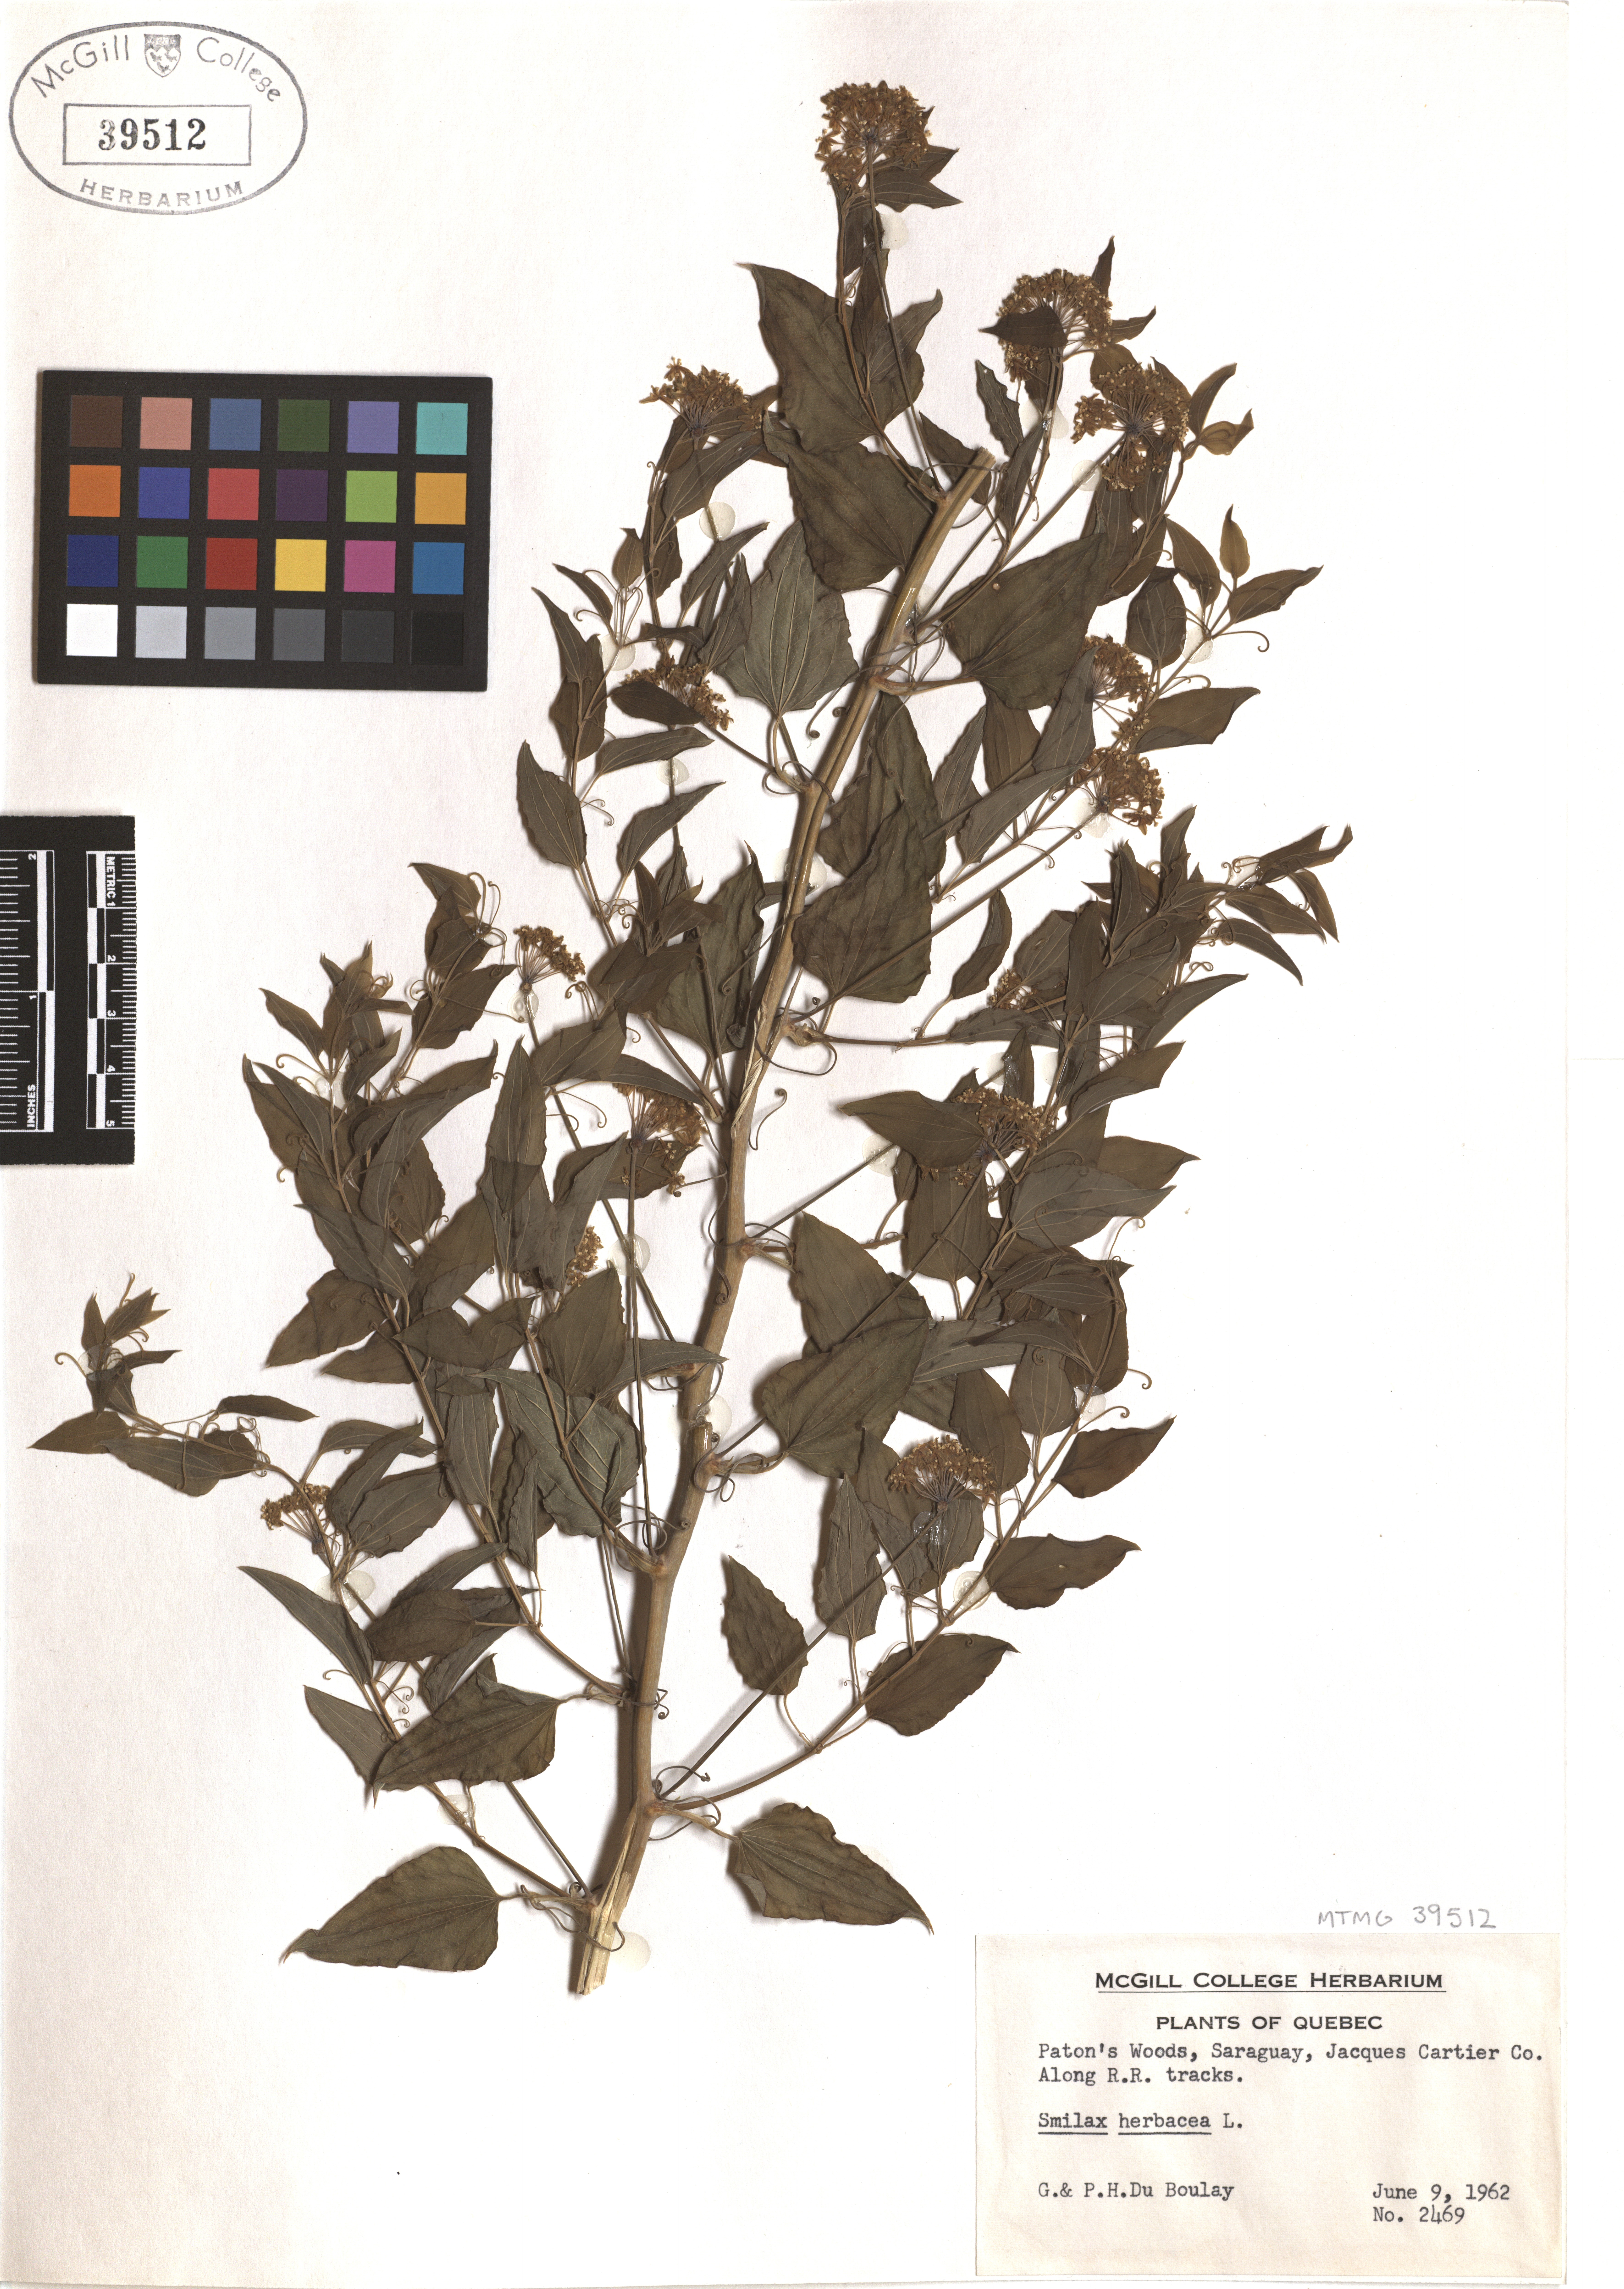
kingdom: Plantae
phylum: Tracheophyta
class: Liliopsida
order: Liliales
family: Smilacaceae
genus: Smilax
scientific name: Smilax herbacea
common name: Jacob's-ladder
